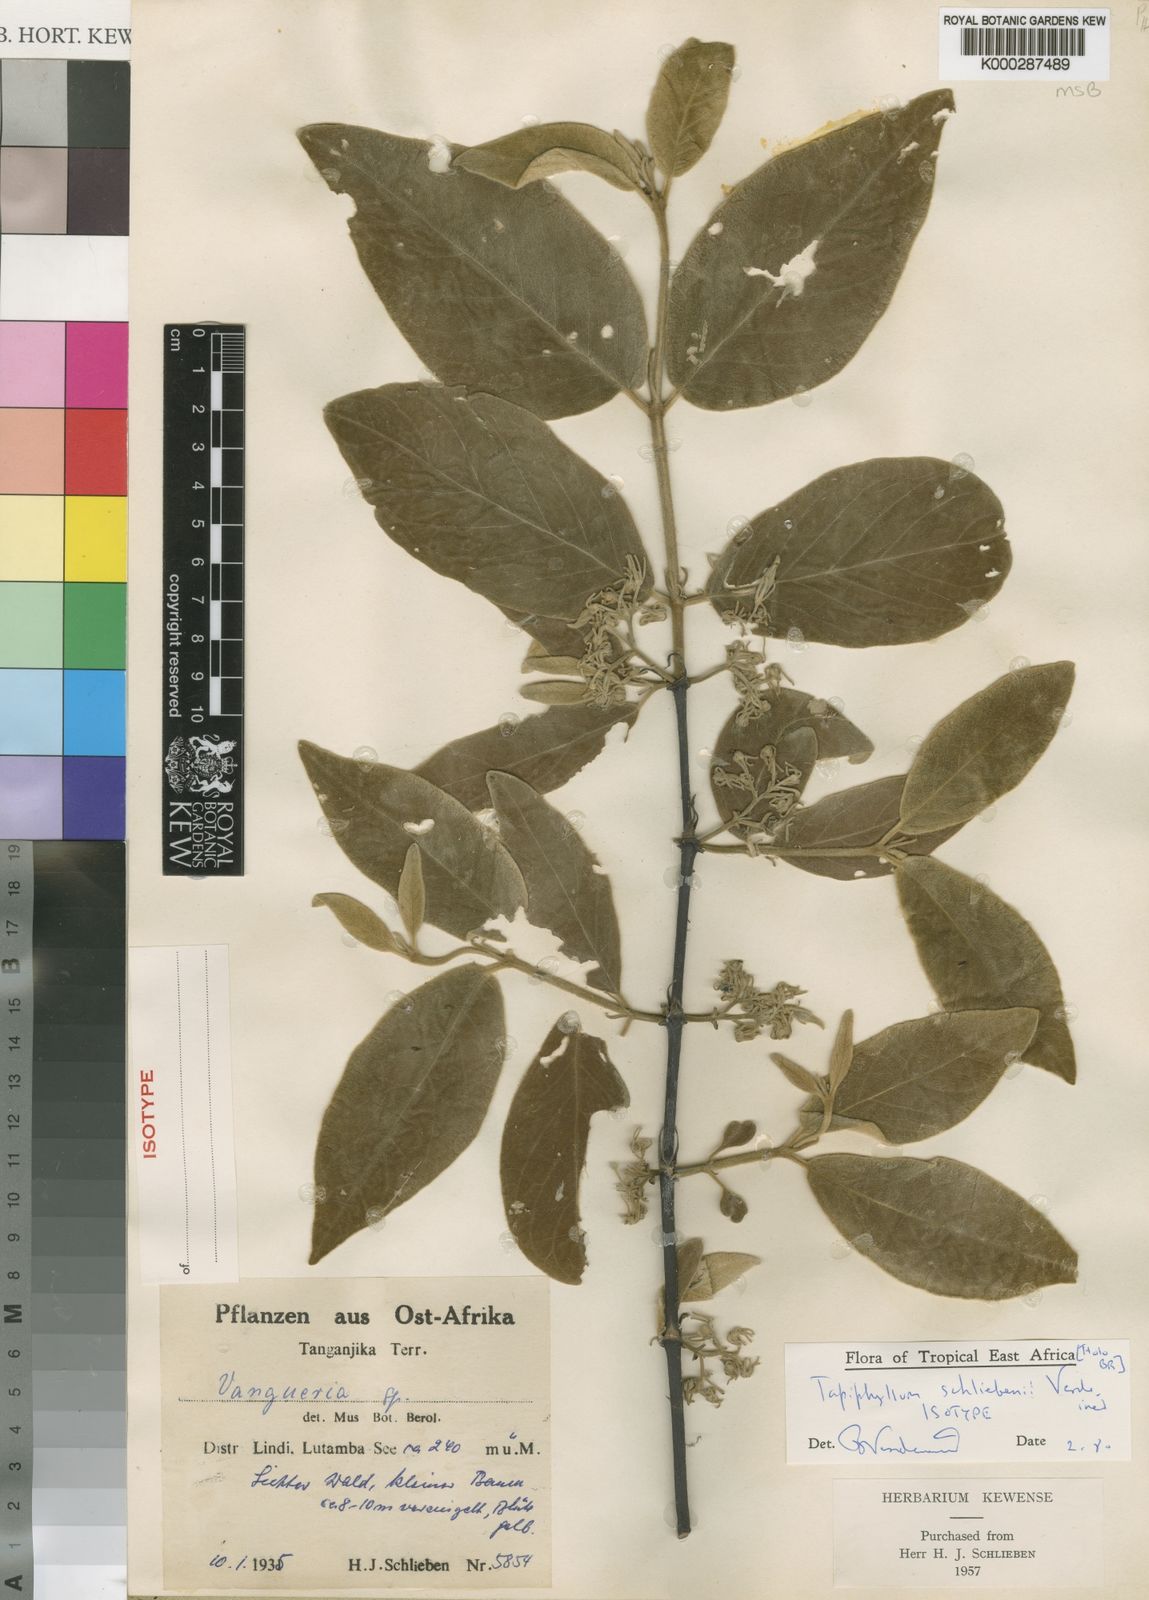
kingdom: Plantae
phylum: Tracheophyta
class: Magnoliopsida
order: Gentianales
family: Rubiaceae
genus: Vangueria
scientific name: Vangueria schliebenii
